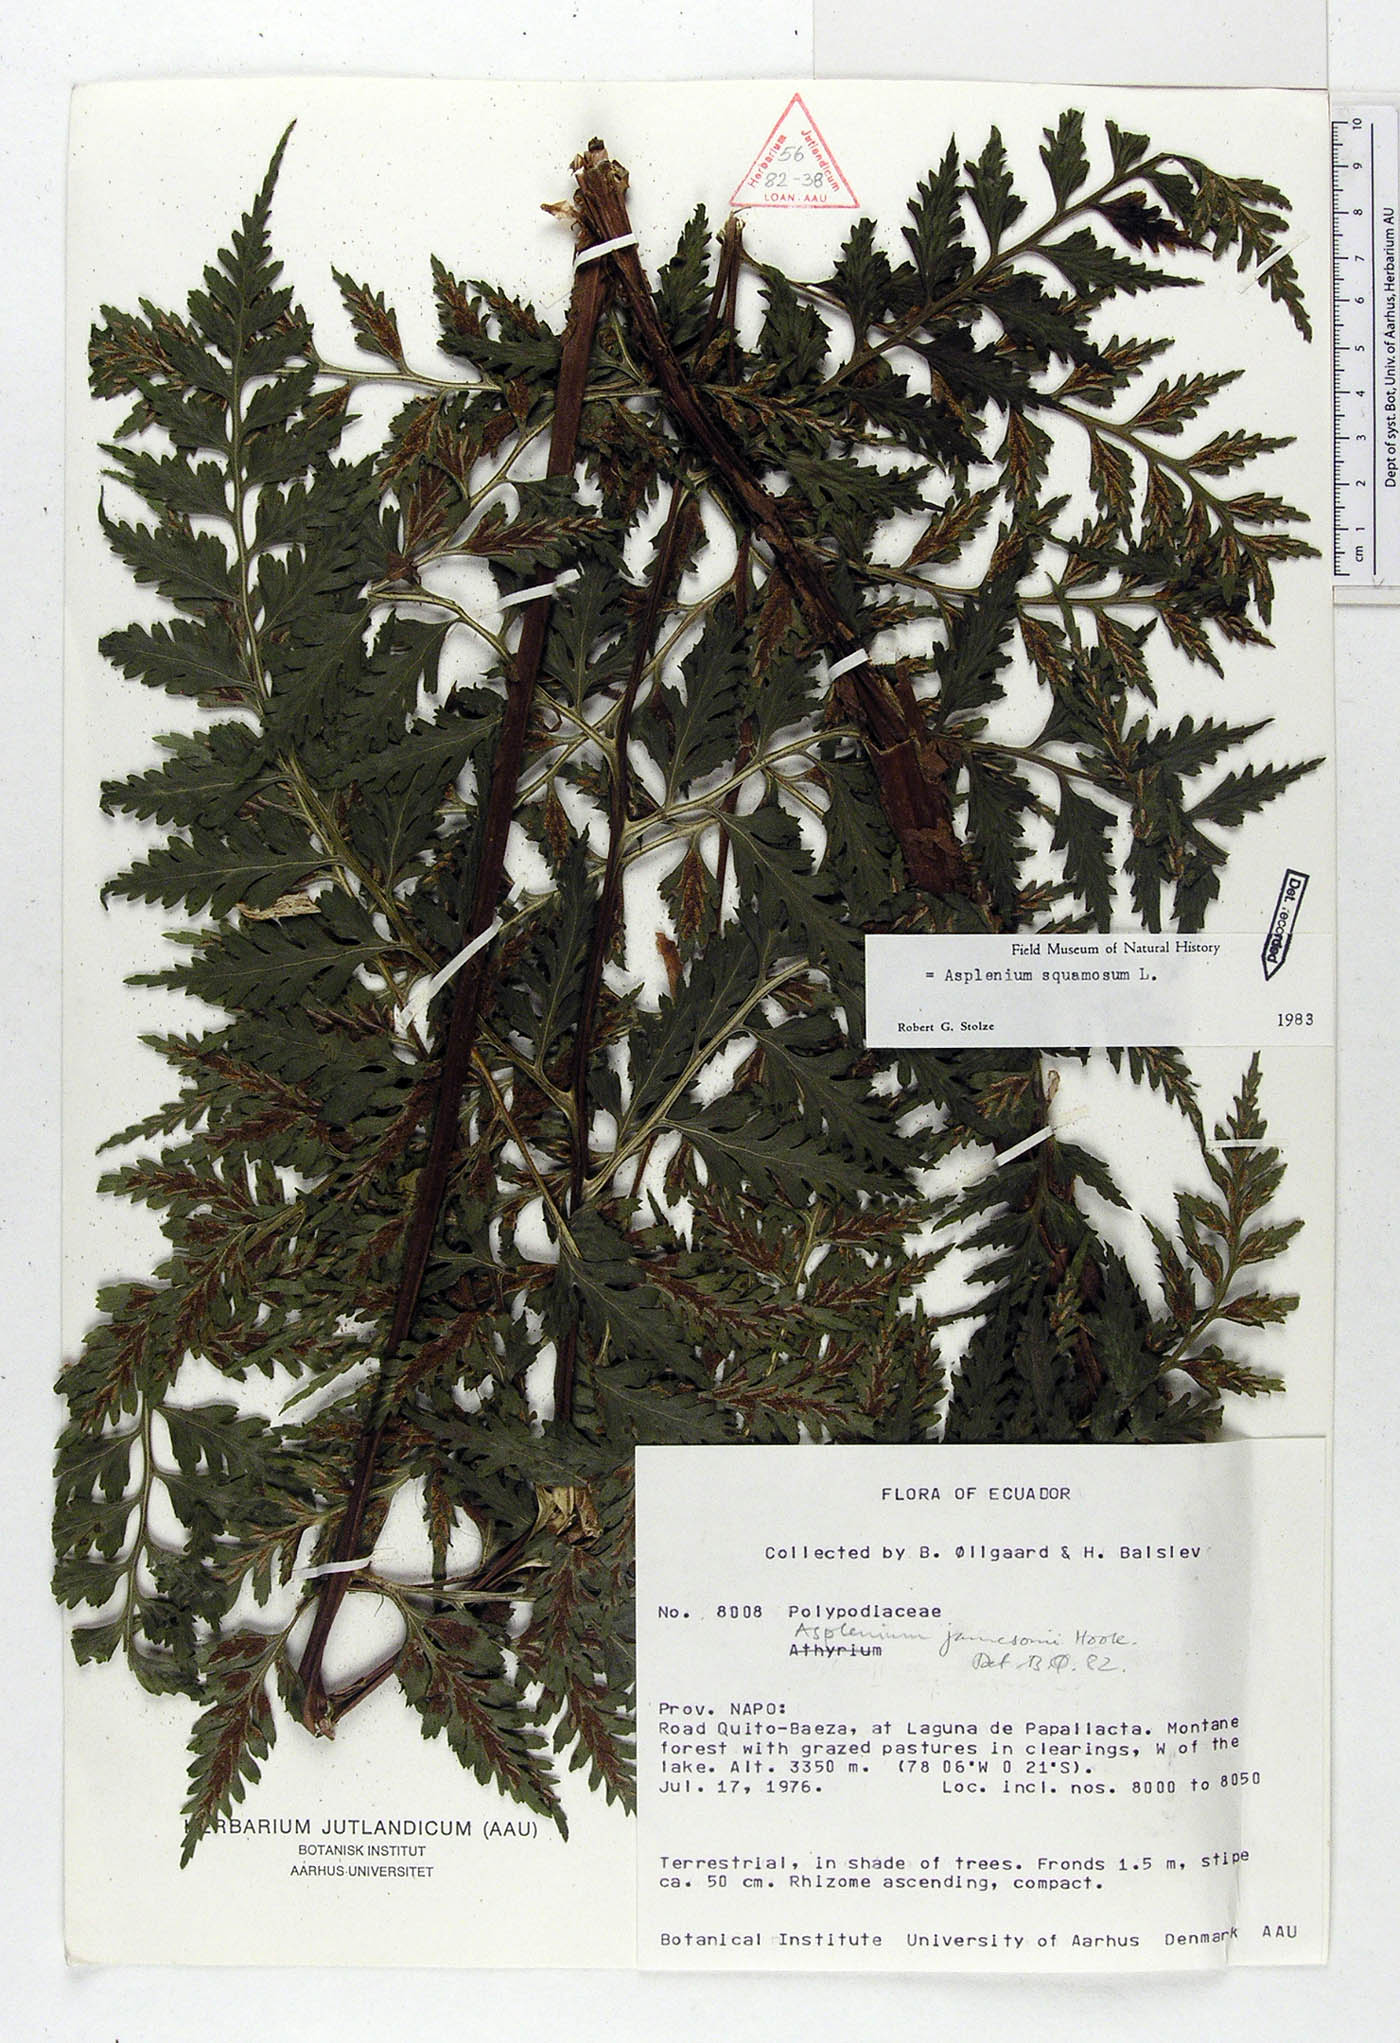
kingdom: Plantae
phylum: Tracheophyta
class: Polypodiopsida
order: Polypodiales
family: Aspleniaceae
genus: Asplenium
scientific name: Asplenium squamosum
